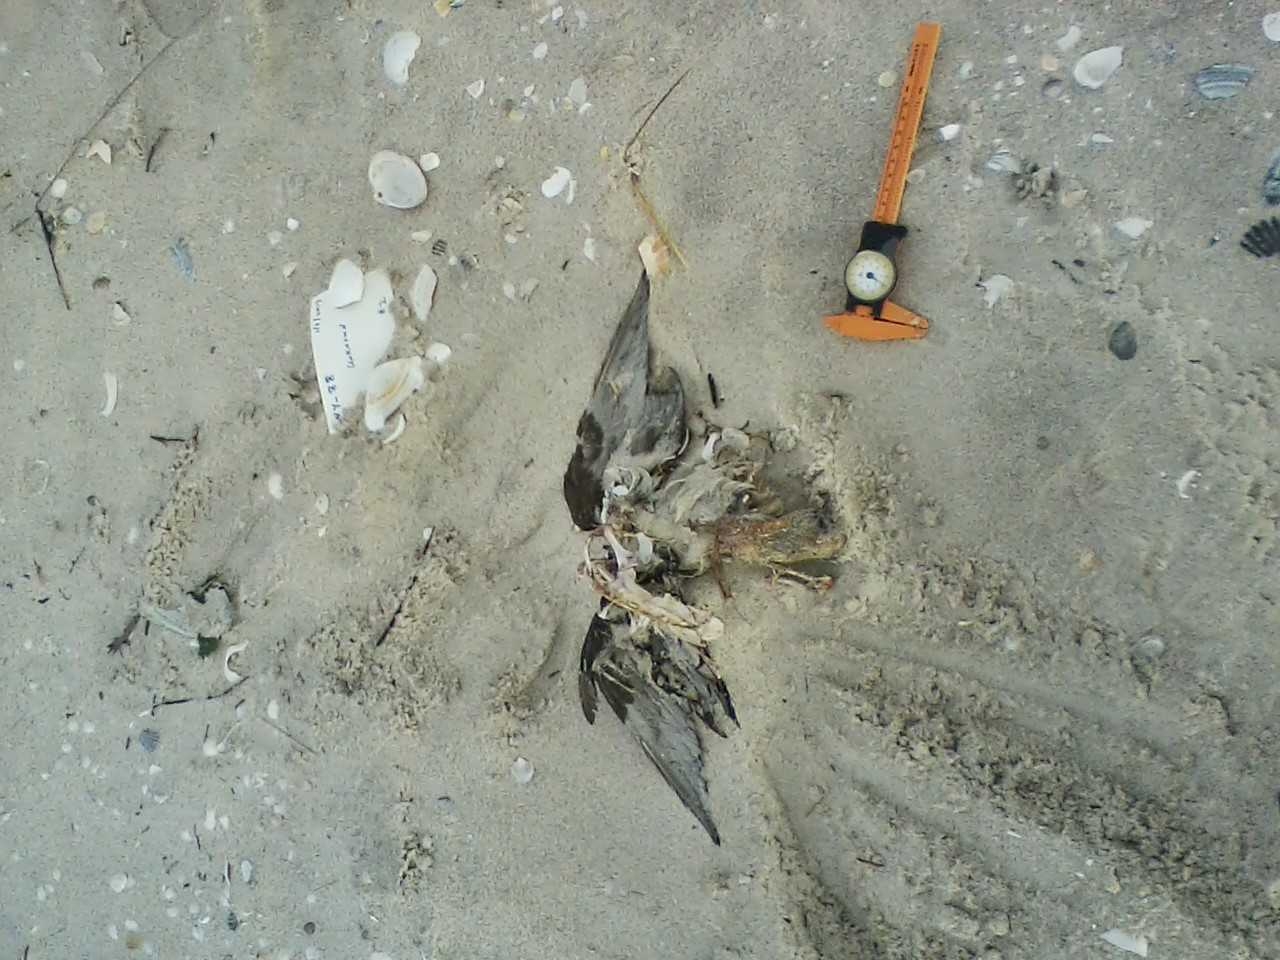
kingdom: Animalia
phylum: Chordata
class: Aves
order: Suliformes
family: Phalacrocoracidae
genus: Phalacrocorax
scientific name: Phalacrocorax
